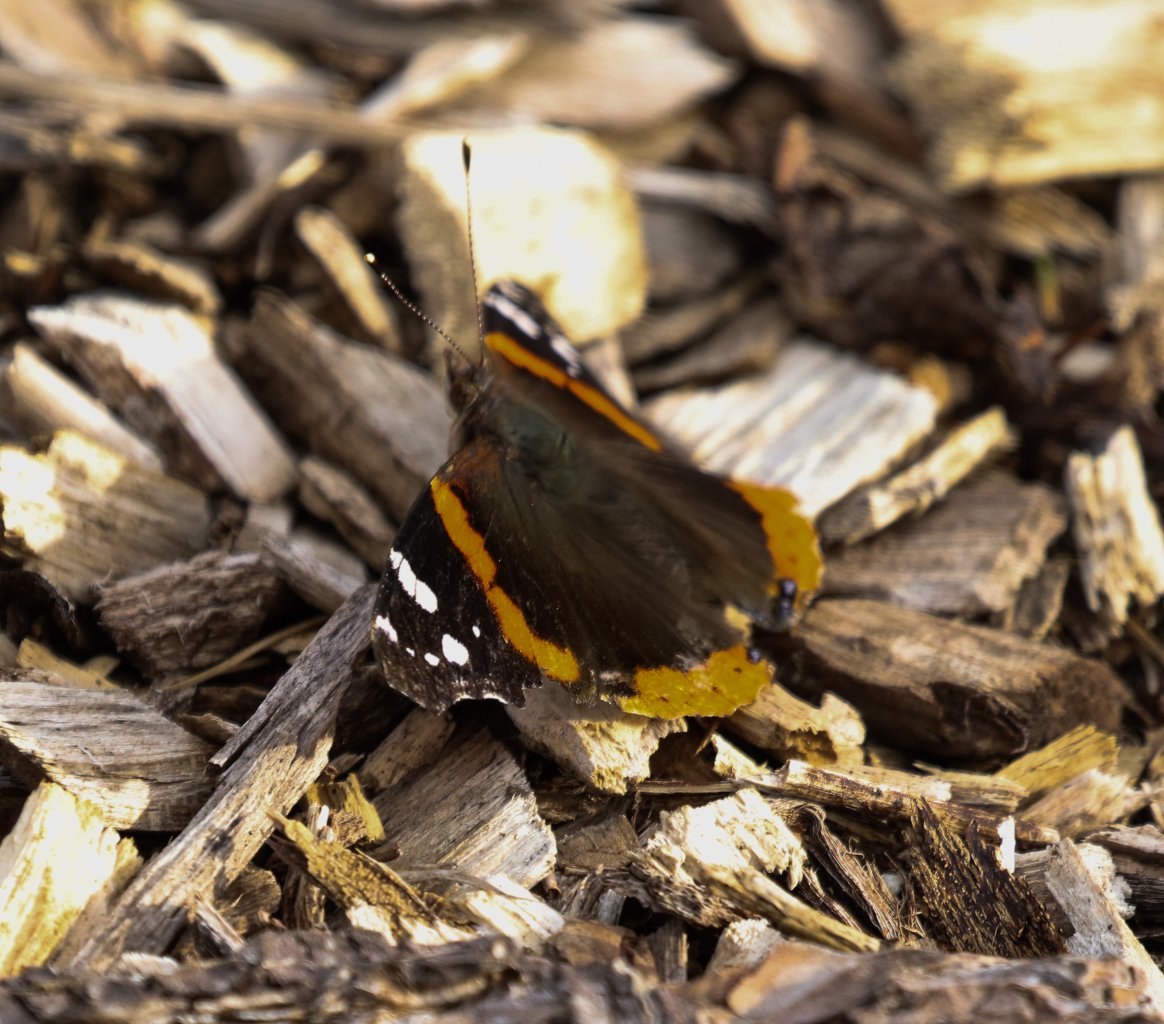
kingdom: Animalia
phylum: Arthropoda
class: Insecta
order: Lepidoptera
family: Nymphalidae
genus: Vanessa
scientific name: Vanessa atalanta
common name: Red Admiral
